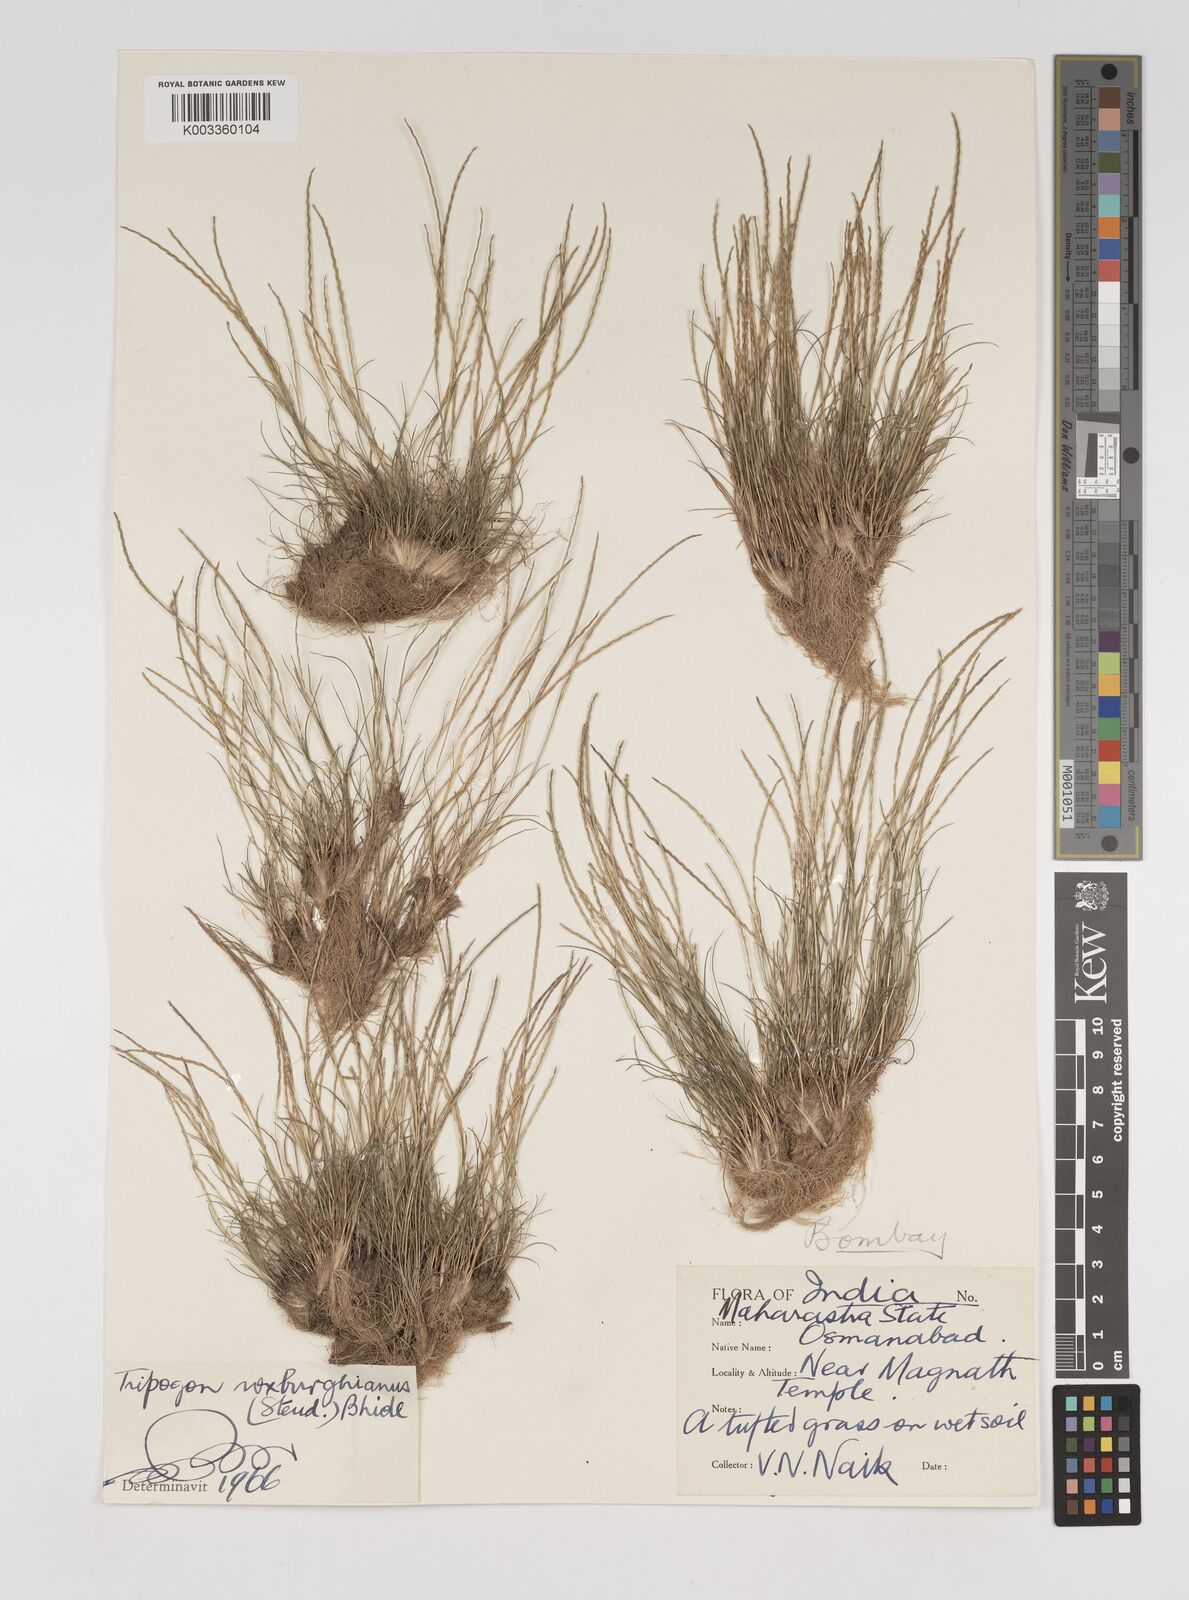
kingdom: Plantae
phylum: Tracheophyta
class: Liliopsida
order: Poales
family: Poaceae
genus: Oropetium
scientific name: Oropetium roxburghianum
